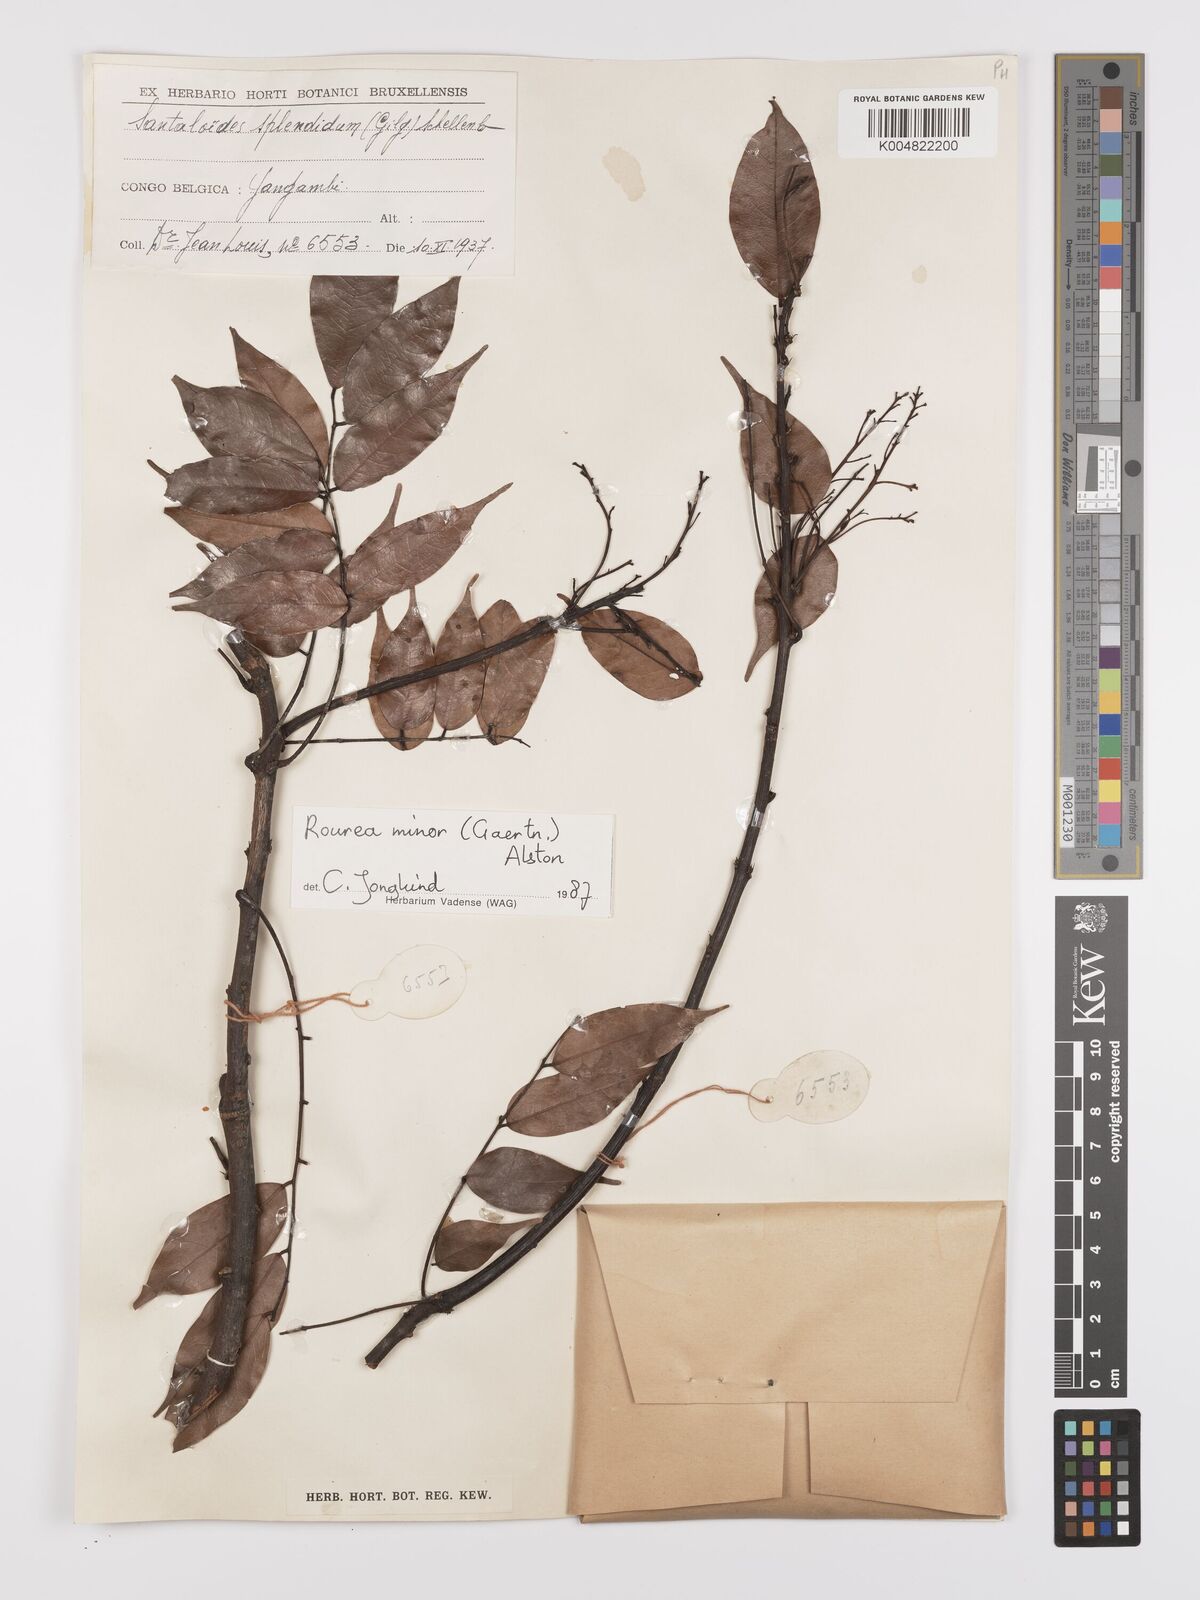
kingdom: Plantae
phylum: Tracheophyta
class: Magnoliopsida
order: Oxalidales
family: Connaraceae
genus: Rourea
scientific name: Rourea minor
